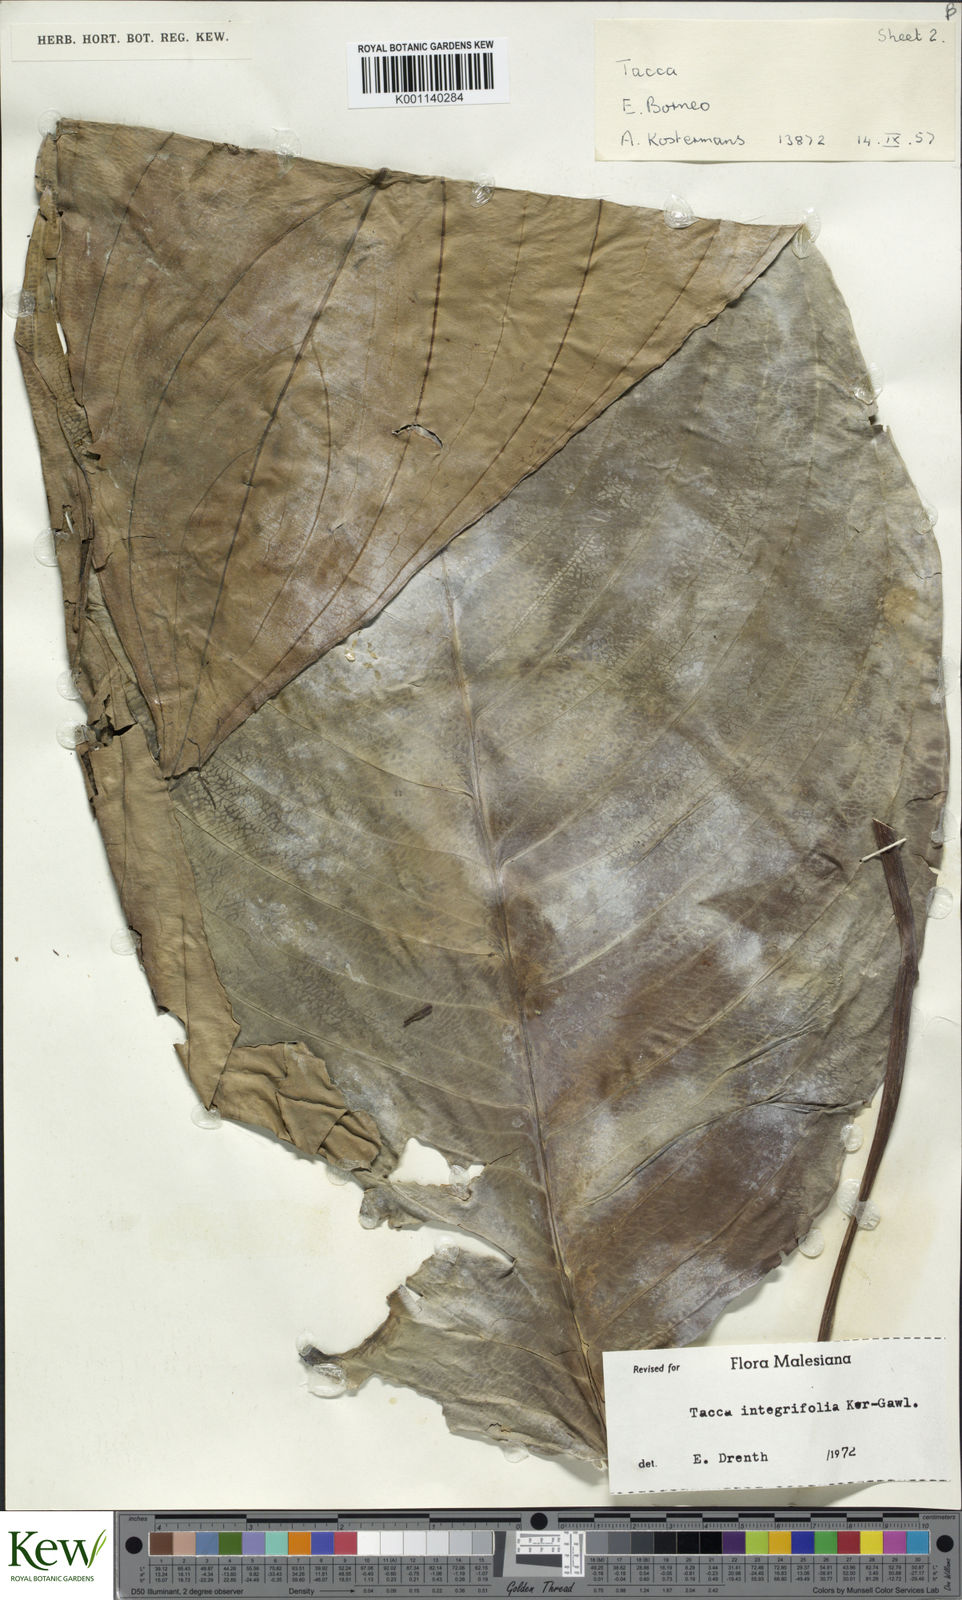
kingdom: Plantae
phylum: Tracheophyta
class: Liliopsida
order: Dioscoreales
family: Dioscoreaceae
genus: Tacca
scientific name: Tacca integrifolia
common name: Batplant
